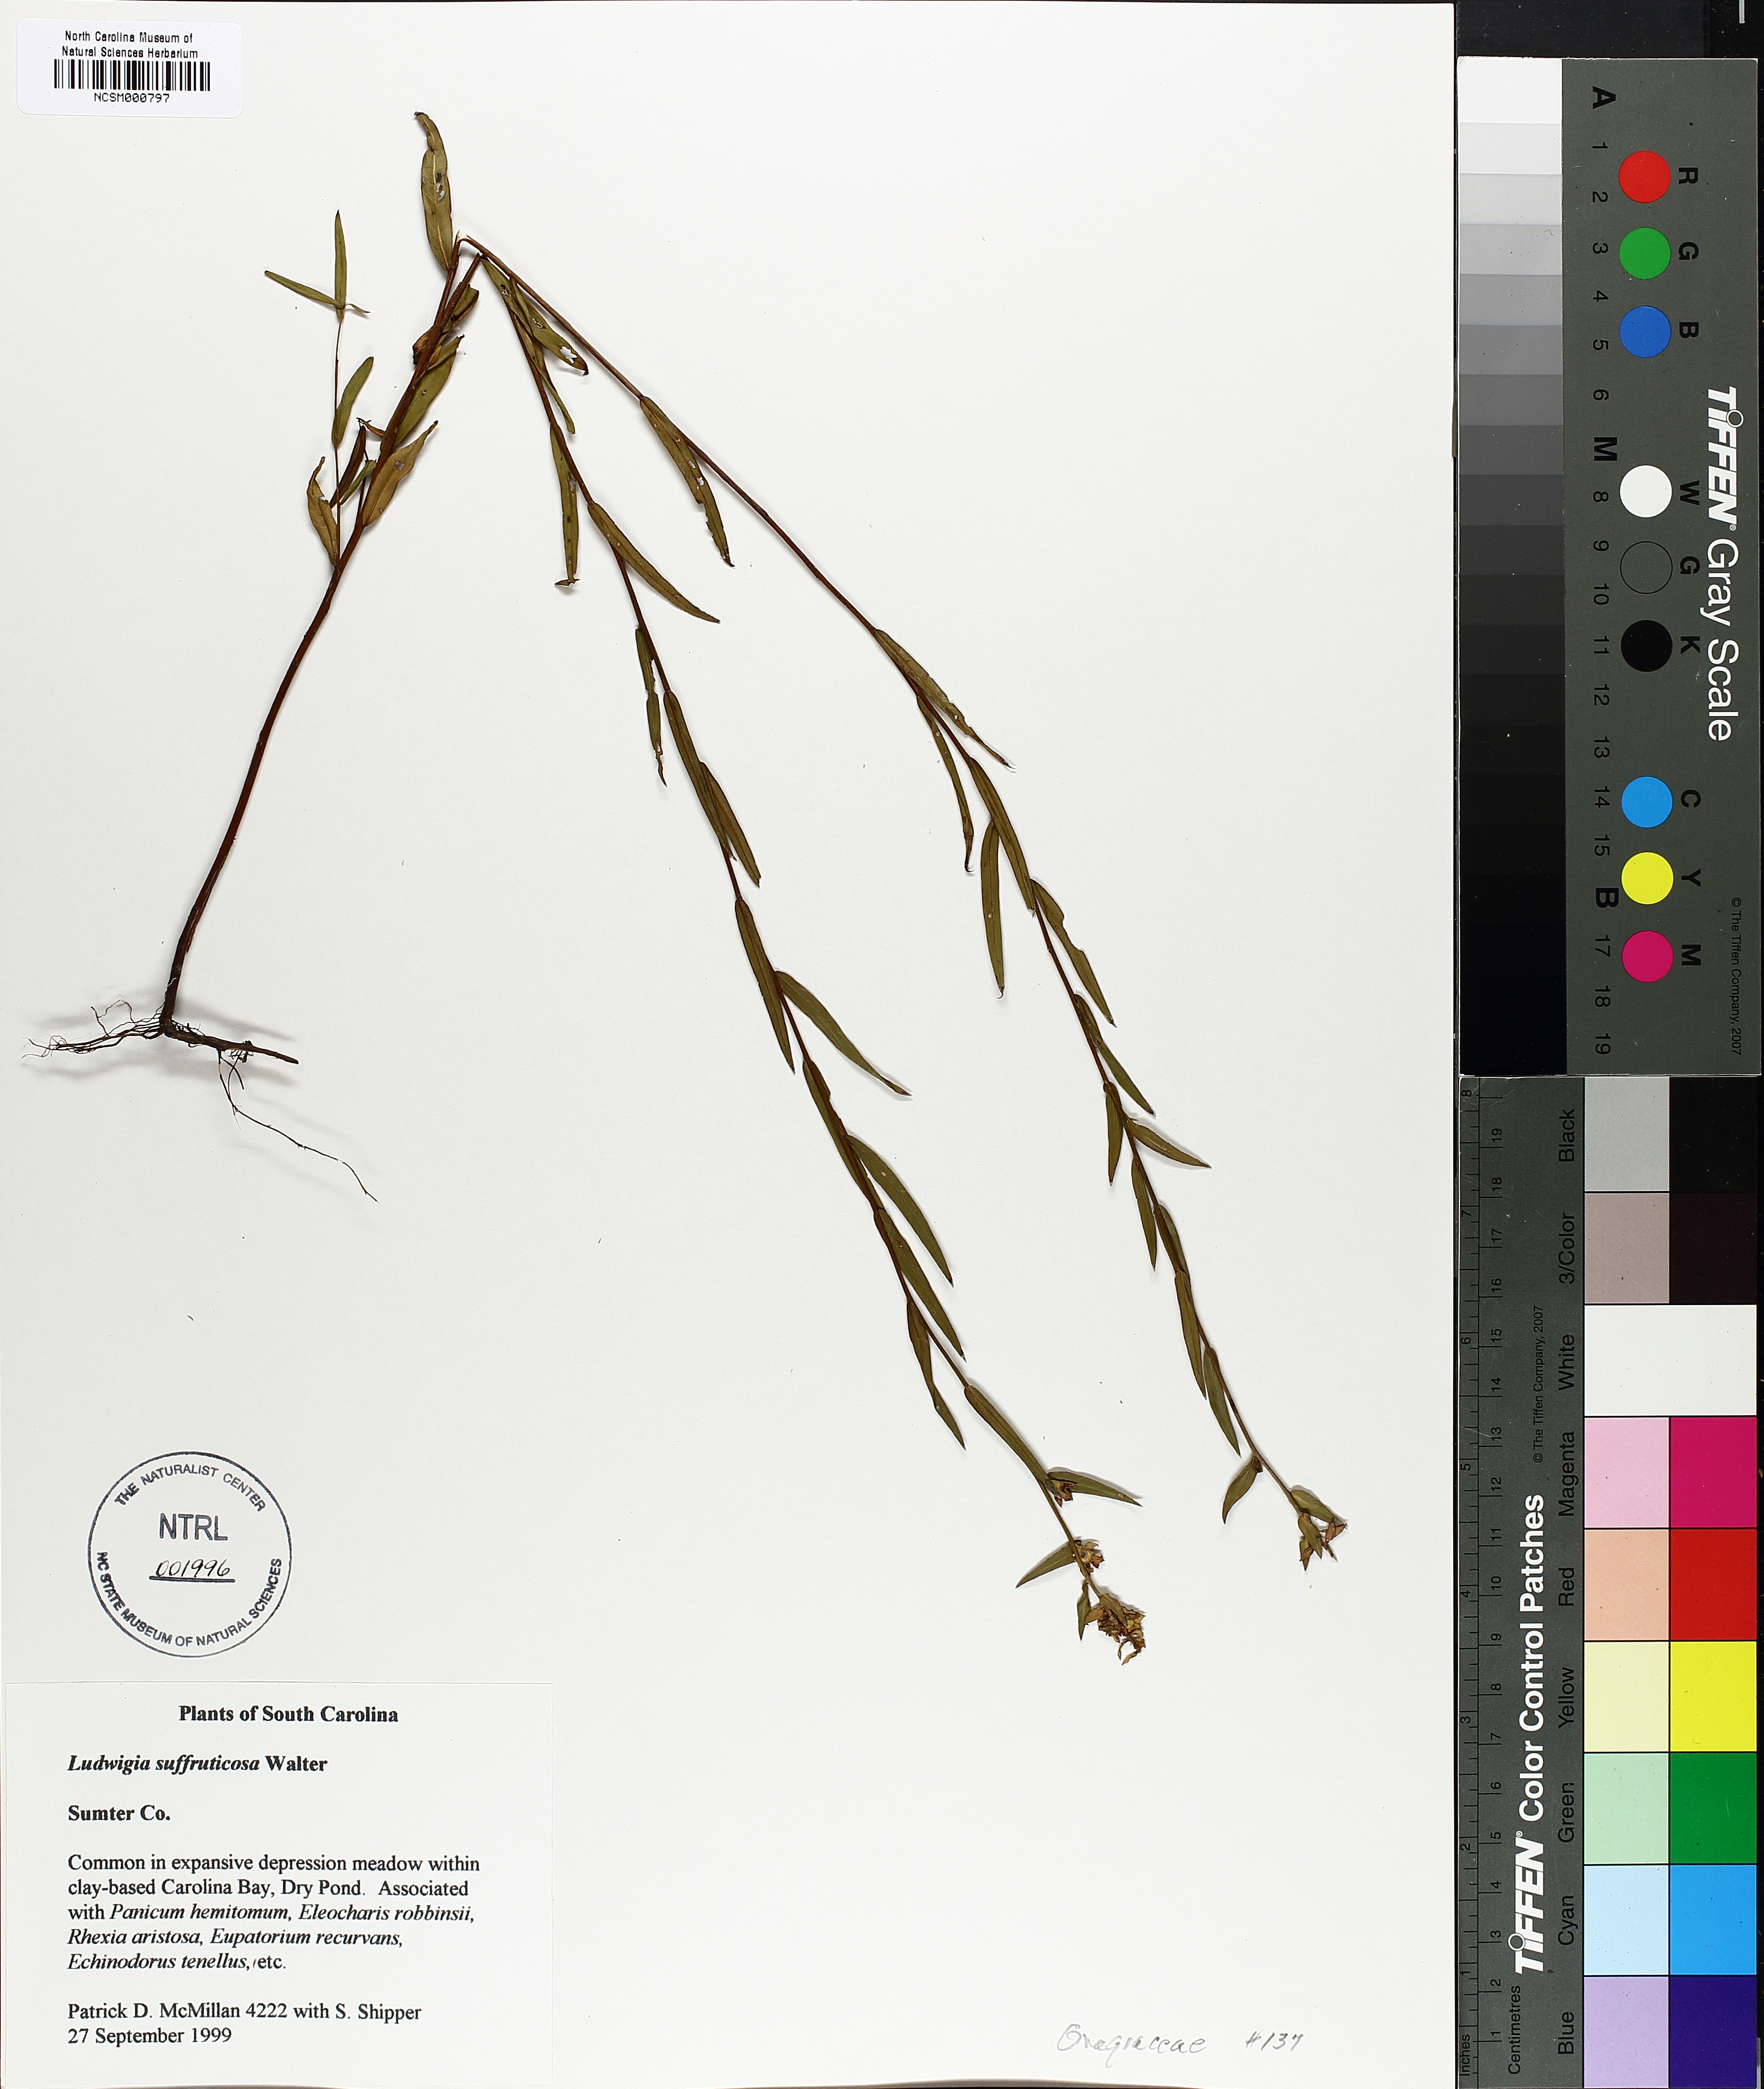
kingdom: Plantae
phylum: Tracheophyta
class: Magnoliopsida
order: Myrtales
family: Onagraceae
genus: Ludwigia
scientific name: Ludwigia suffruticosa
